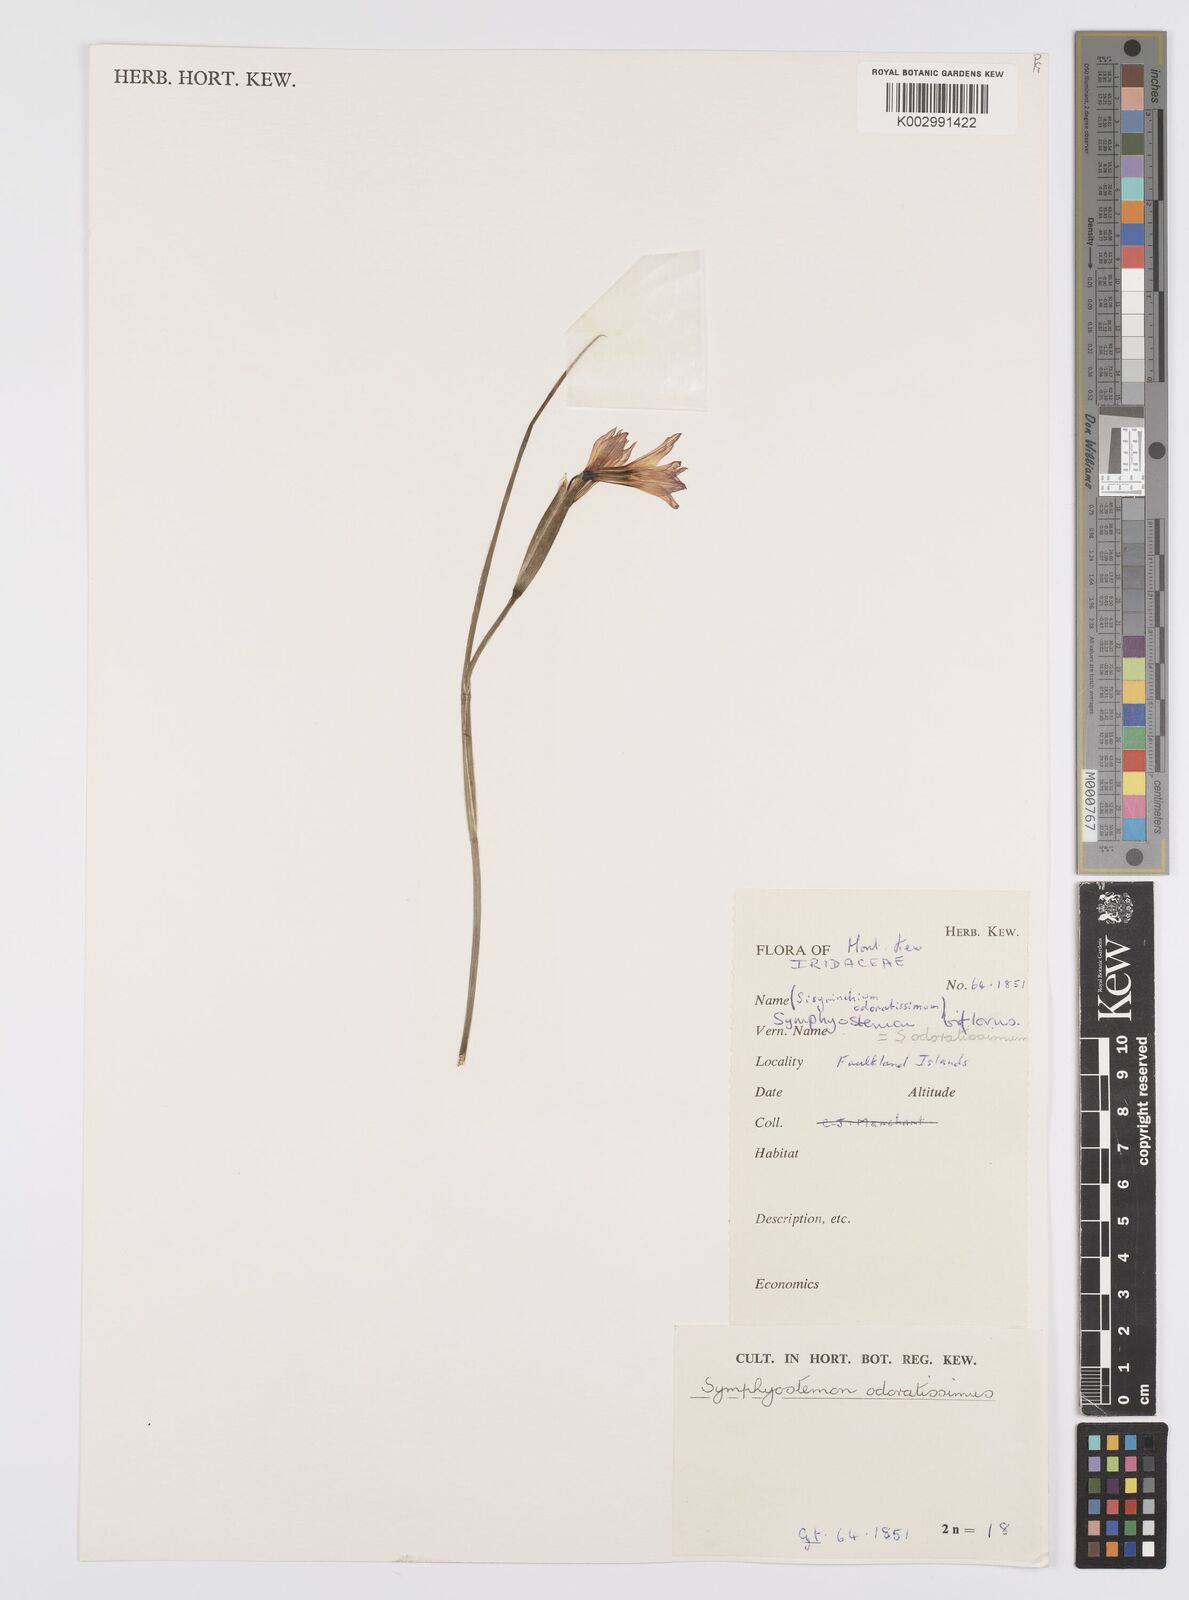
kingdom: Plantae
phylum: Tracheophyta
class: Liliopsida
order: Asparagales
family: Iridaceae
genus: Olsynium
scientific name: Olsynium biflorum
